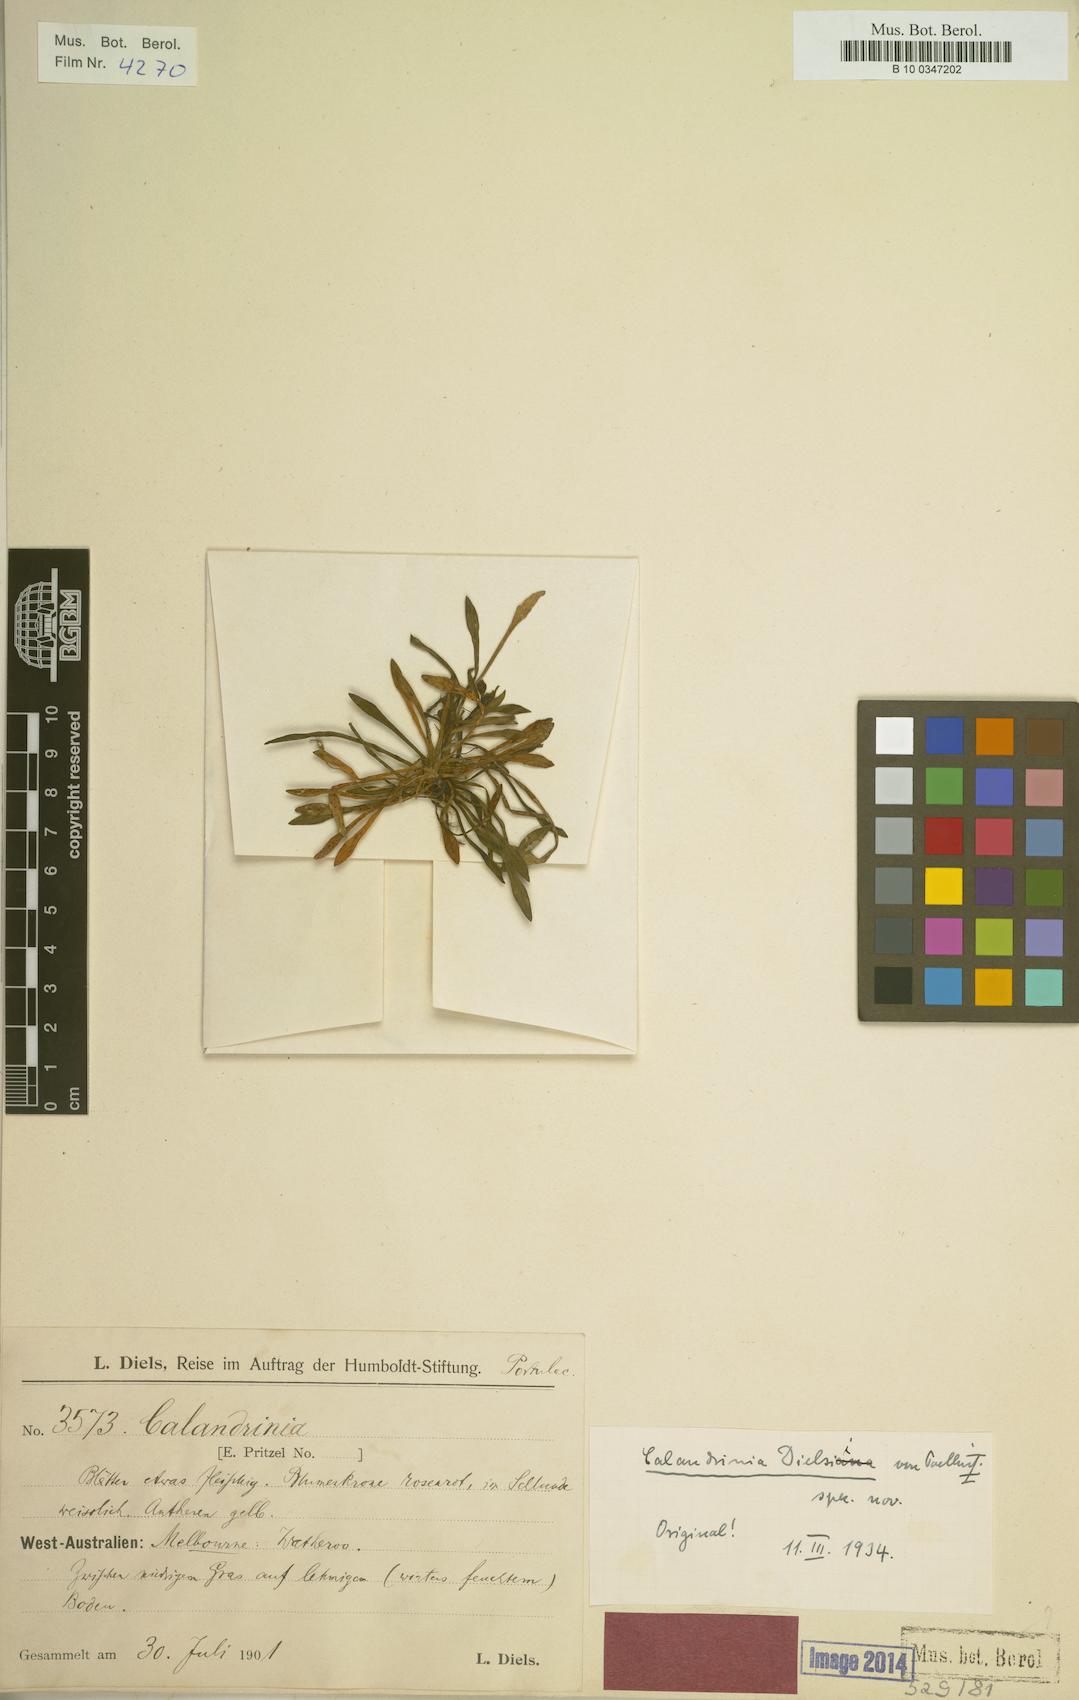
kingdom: Plantae
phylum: Tracheophyta
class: Magnoliopsida
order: Caryophyllales
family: Montiaceae
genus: Rumicastrum
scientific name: Rumicastrum dielsii
